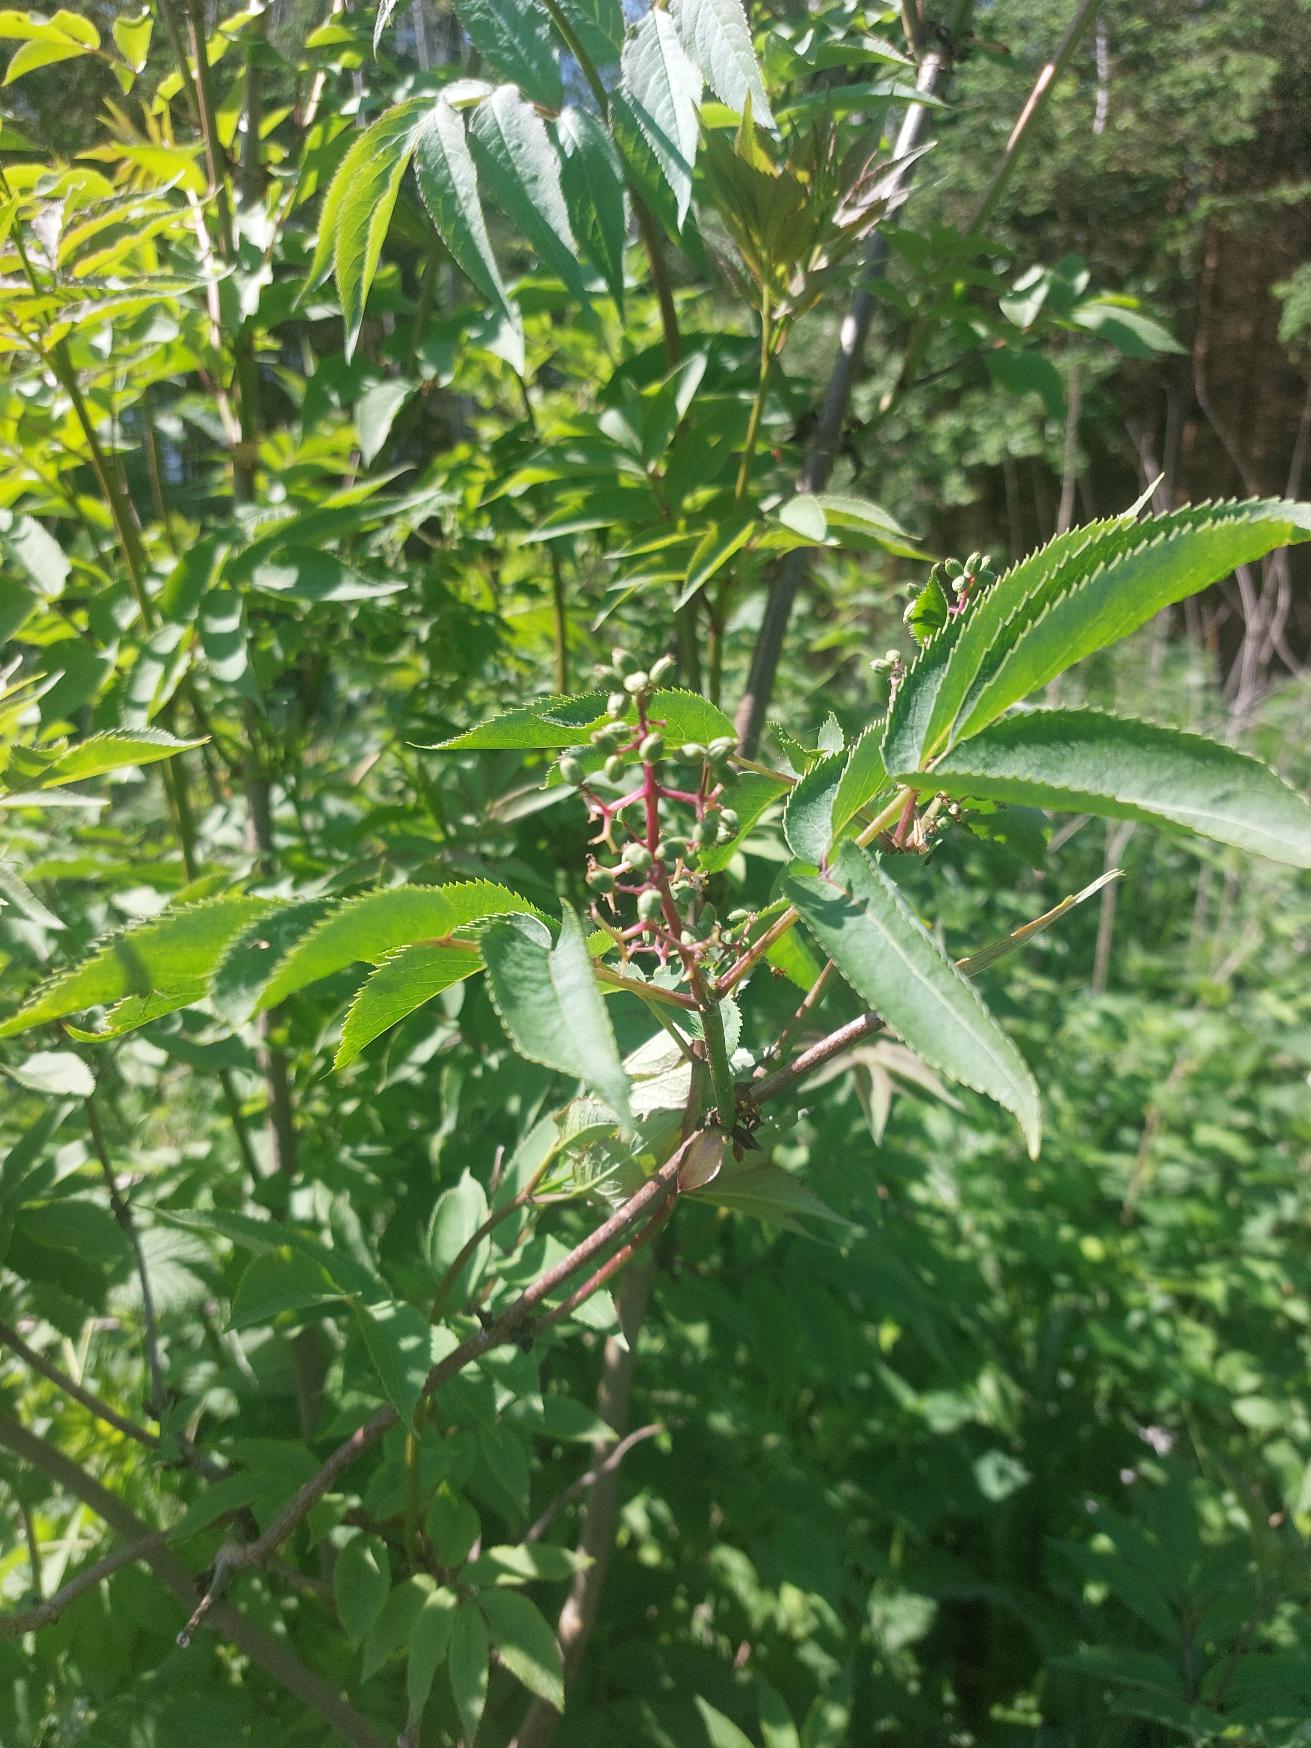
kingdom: Plantae
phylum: Tracheophyta
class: Magnoliopsida
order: Dipsacales
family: Viburnaceae
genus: Sambucus
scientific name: Sambucus racemosa
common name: Drue-hyld
